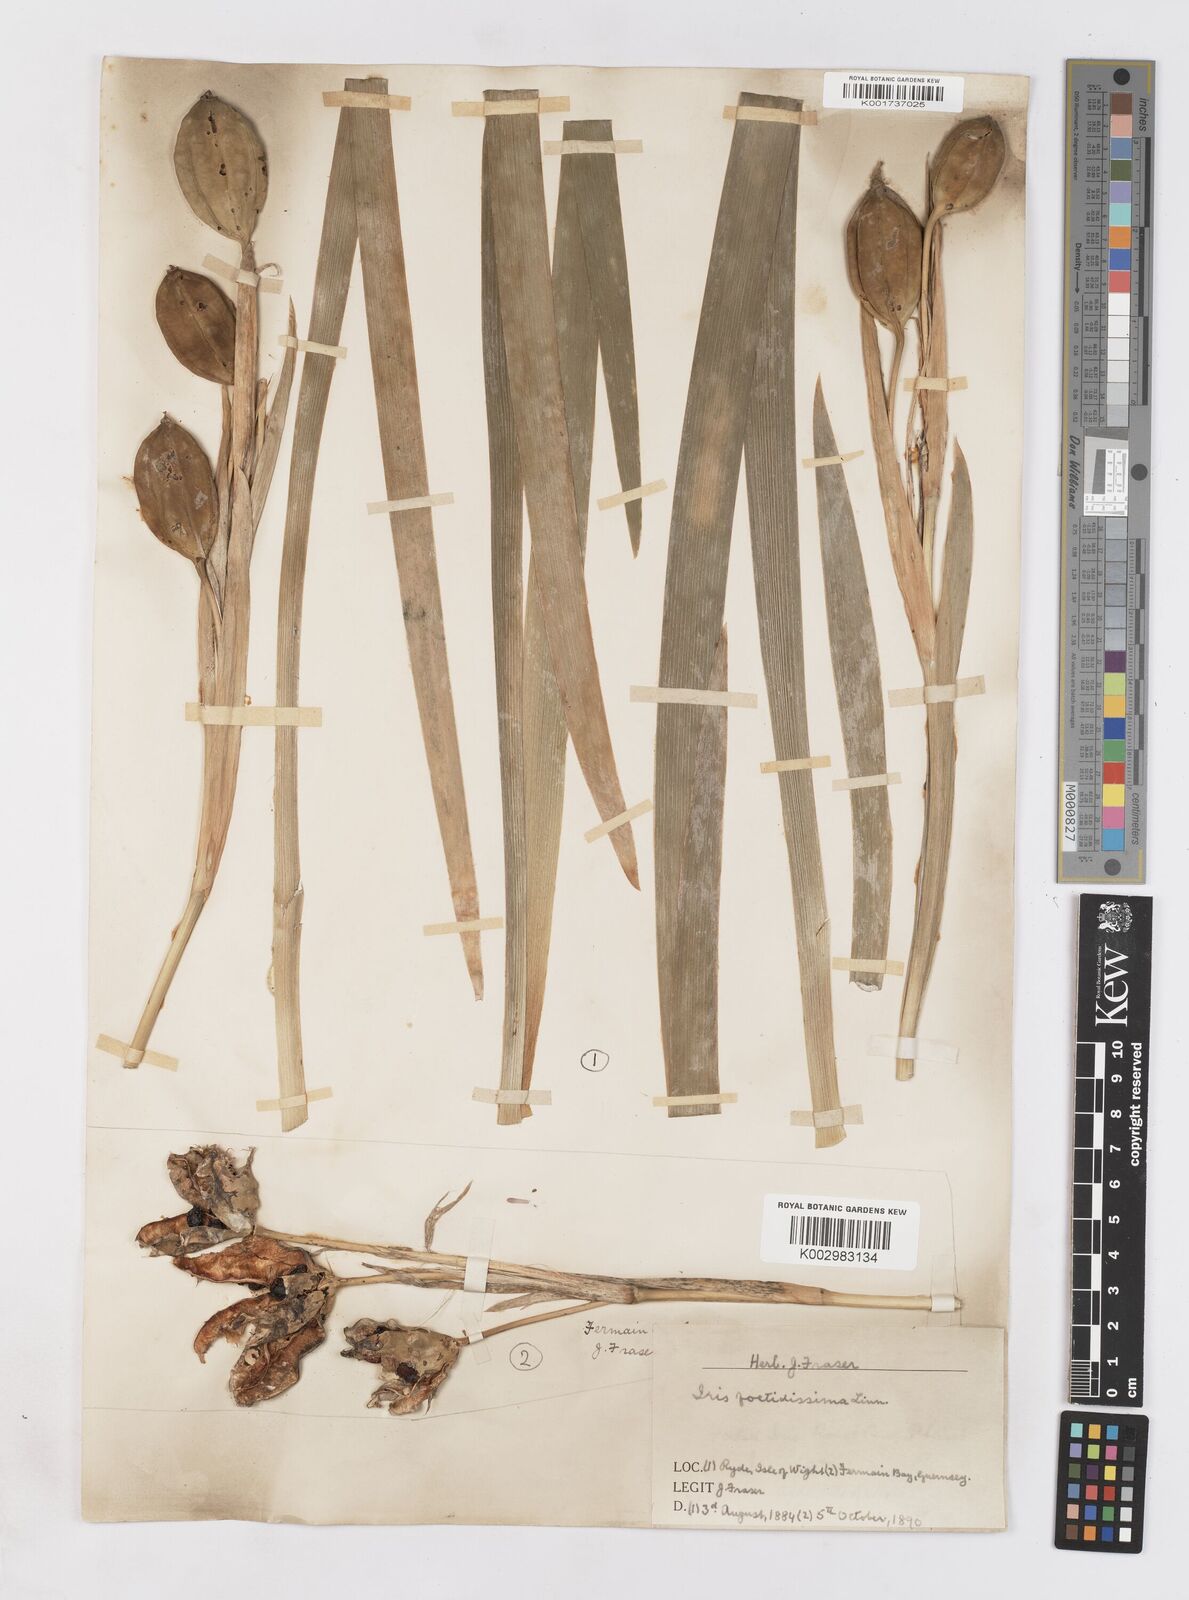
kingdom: Plantae
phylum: Tracheophyta
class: Liliopsida
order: Asparagales
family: Iridaceae
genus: Iris
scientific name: Iris foetidissima
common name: Stinking iris
